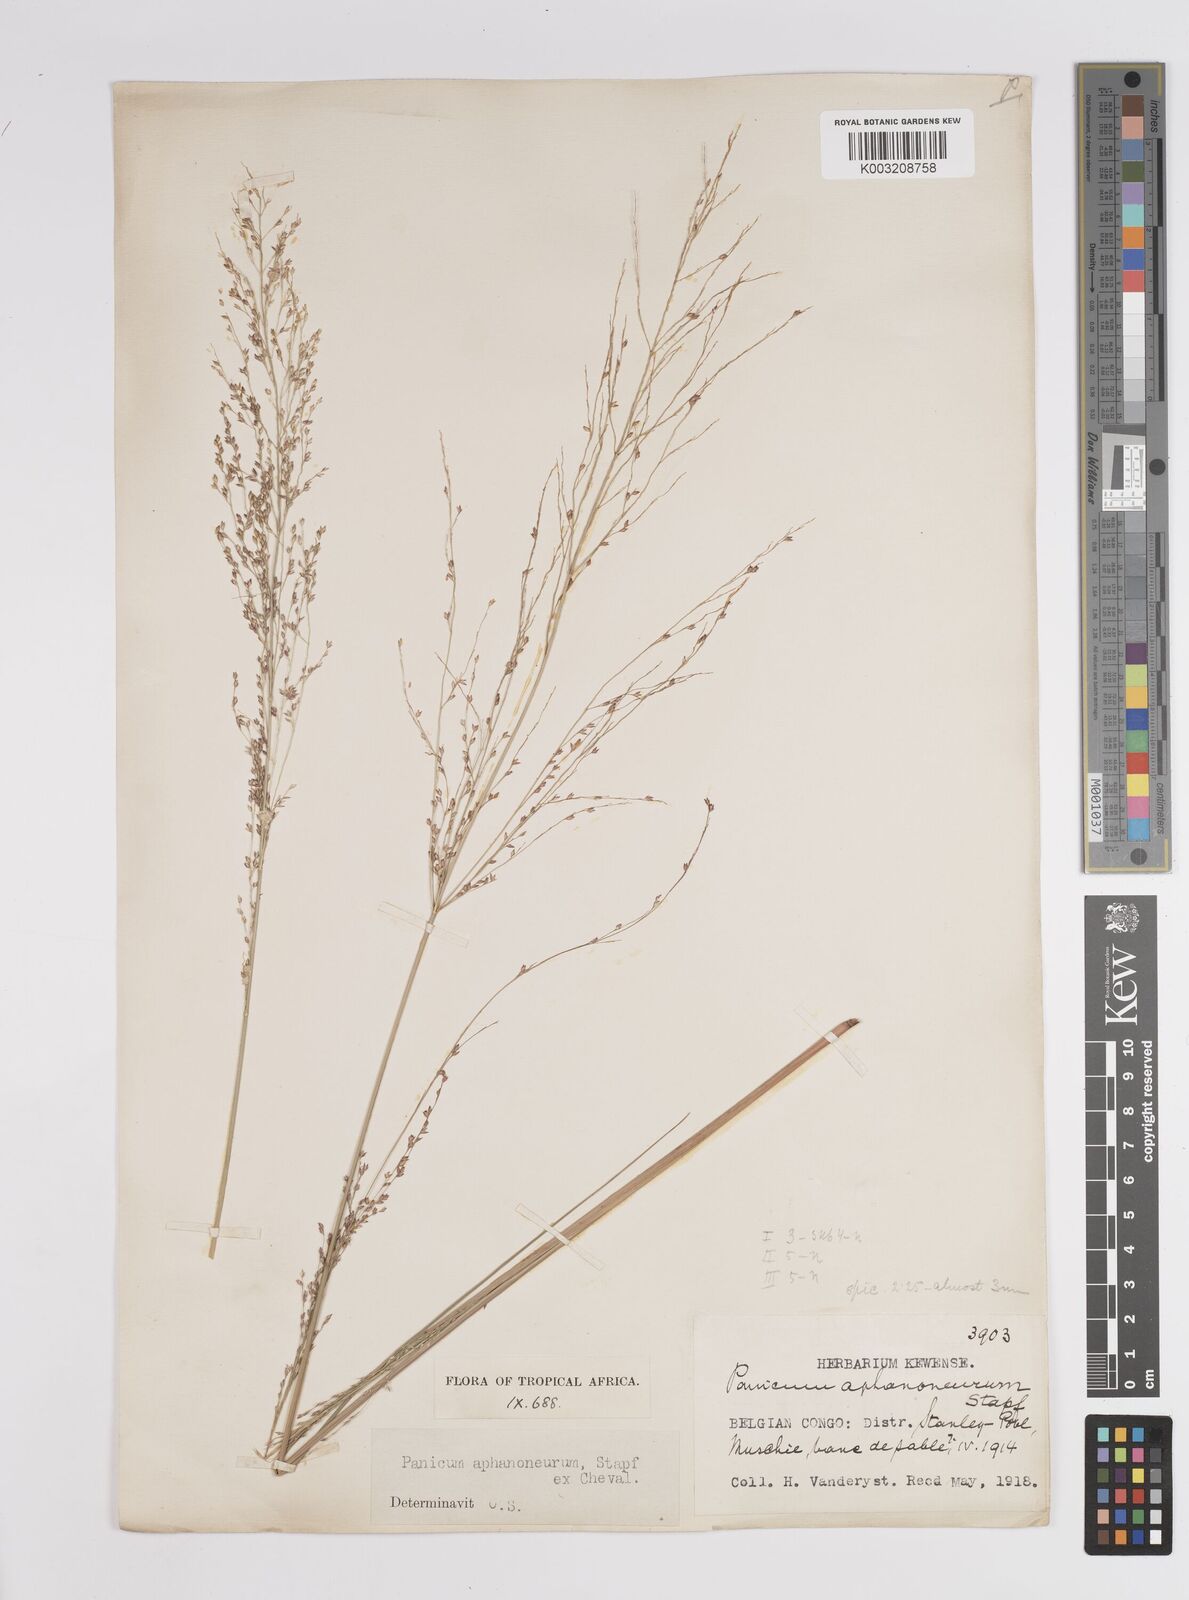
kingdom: Plantae
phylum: Tracheophyta
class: Liliopsida
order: Poales
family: Poaceae
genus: Panicum
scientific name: Panicum fluviicola
